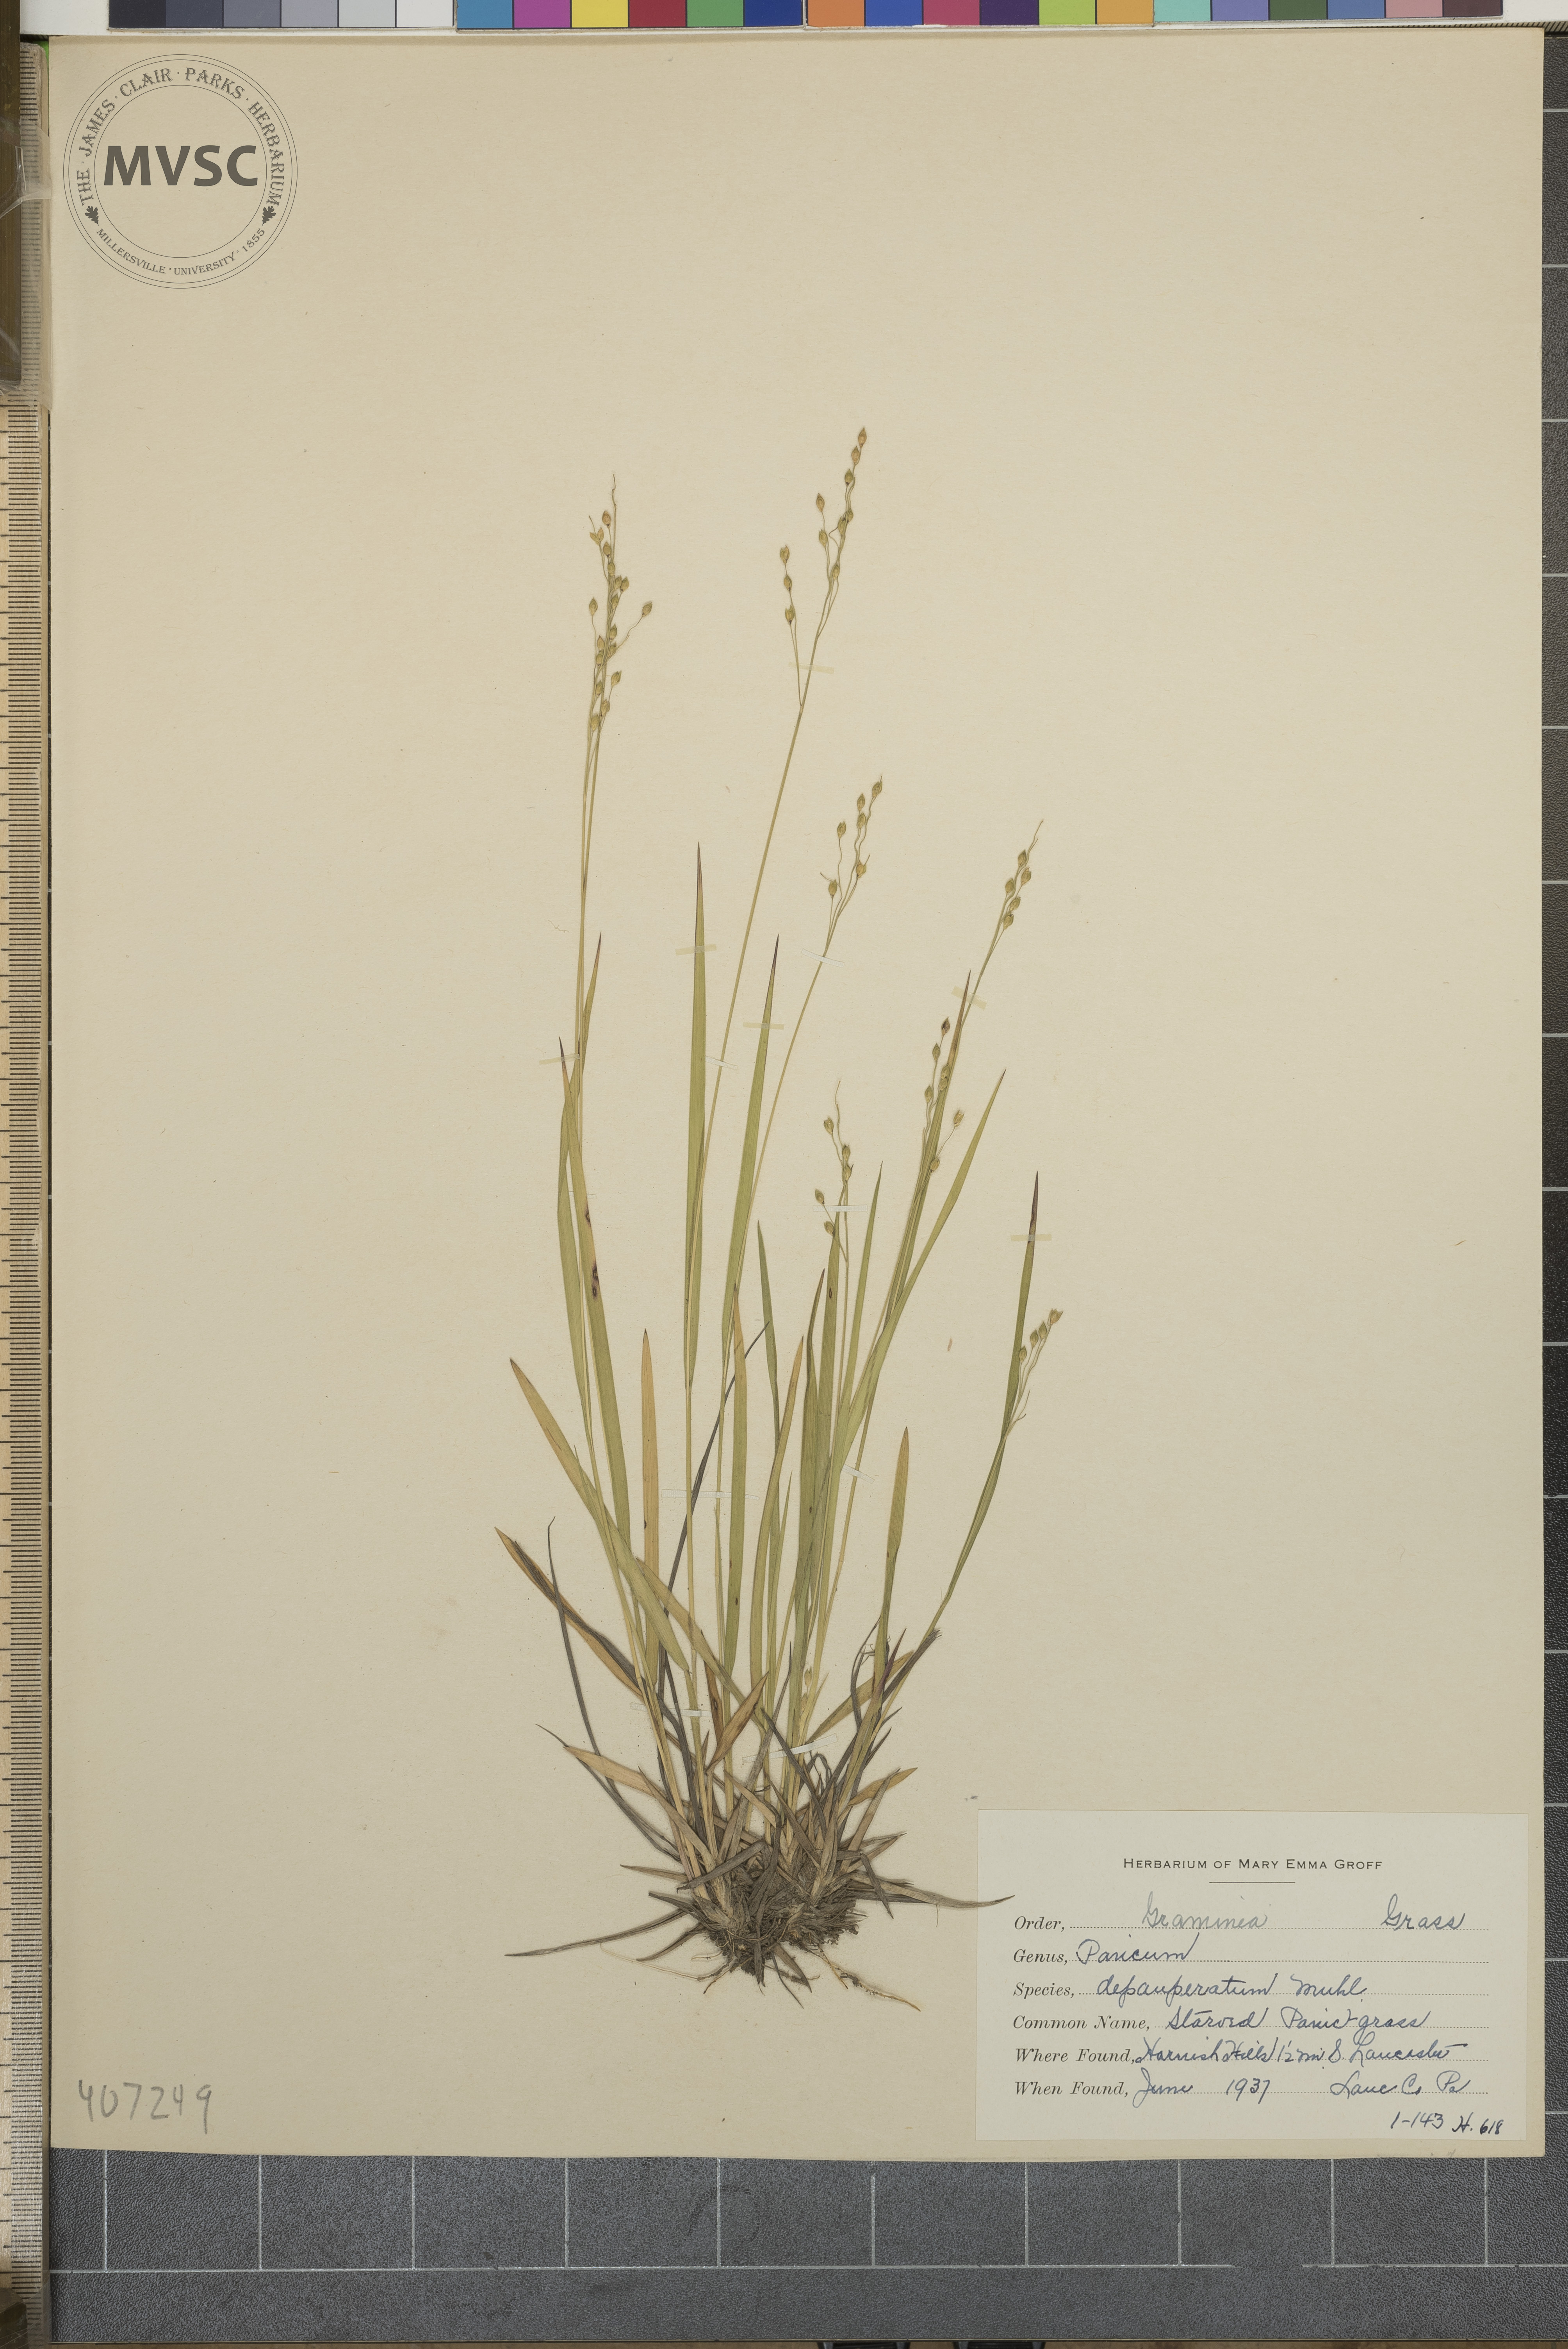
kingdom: Plantae
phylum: Tracheophyta
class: Liliopsida
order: Poales
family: Poaceae
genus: Dichanthelium
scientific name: Dichanthelium depauperatum
